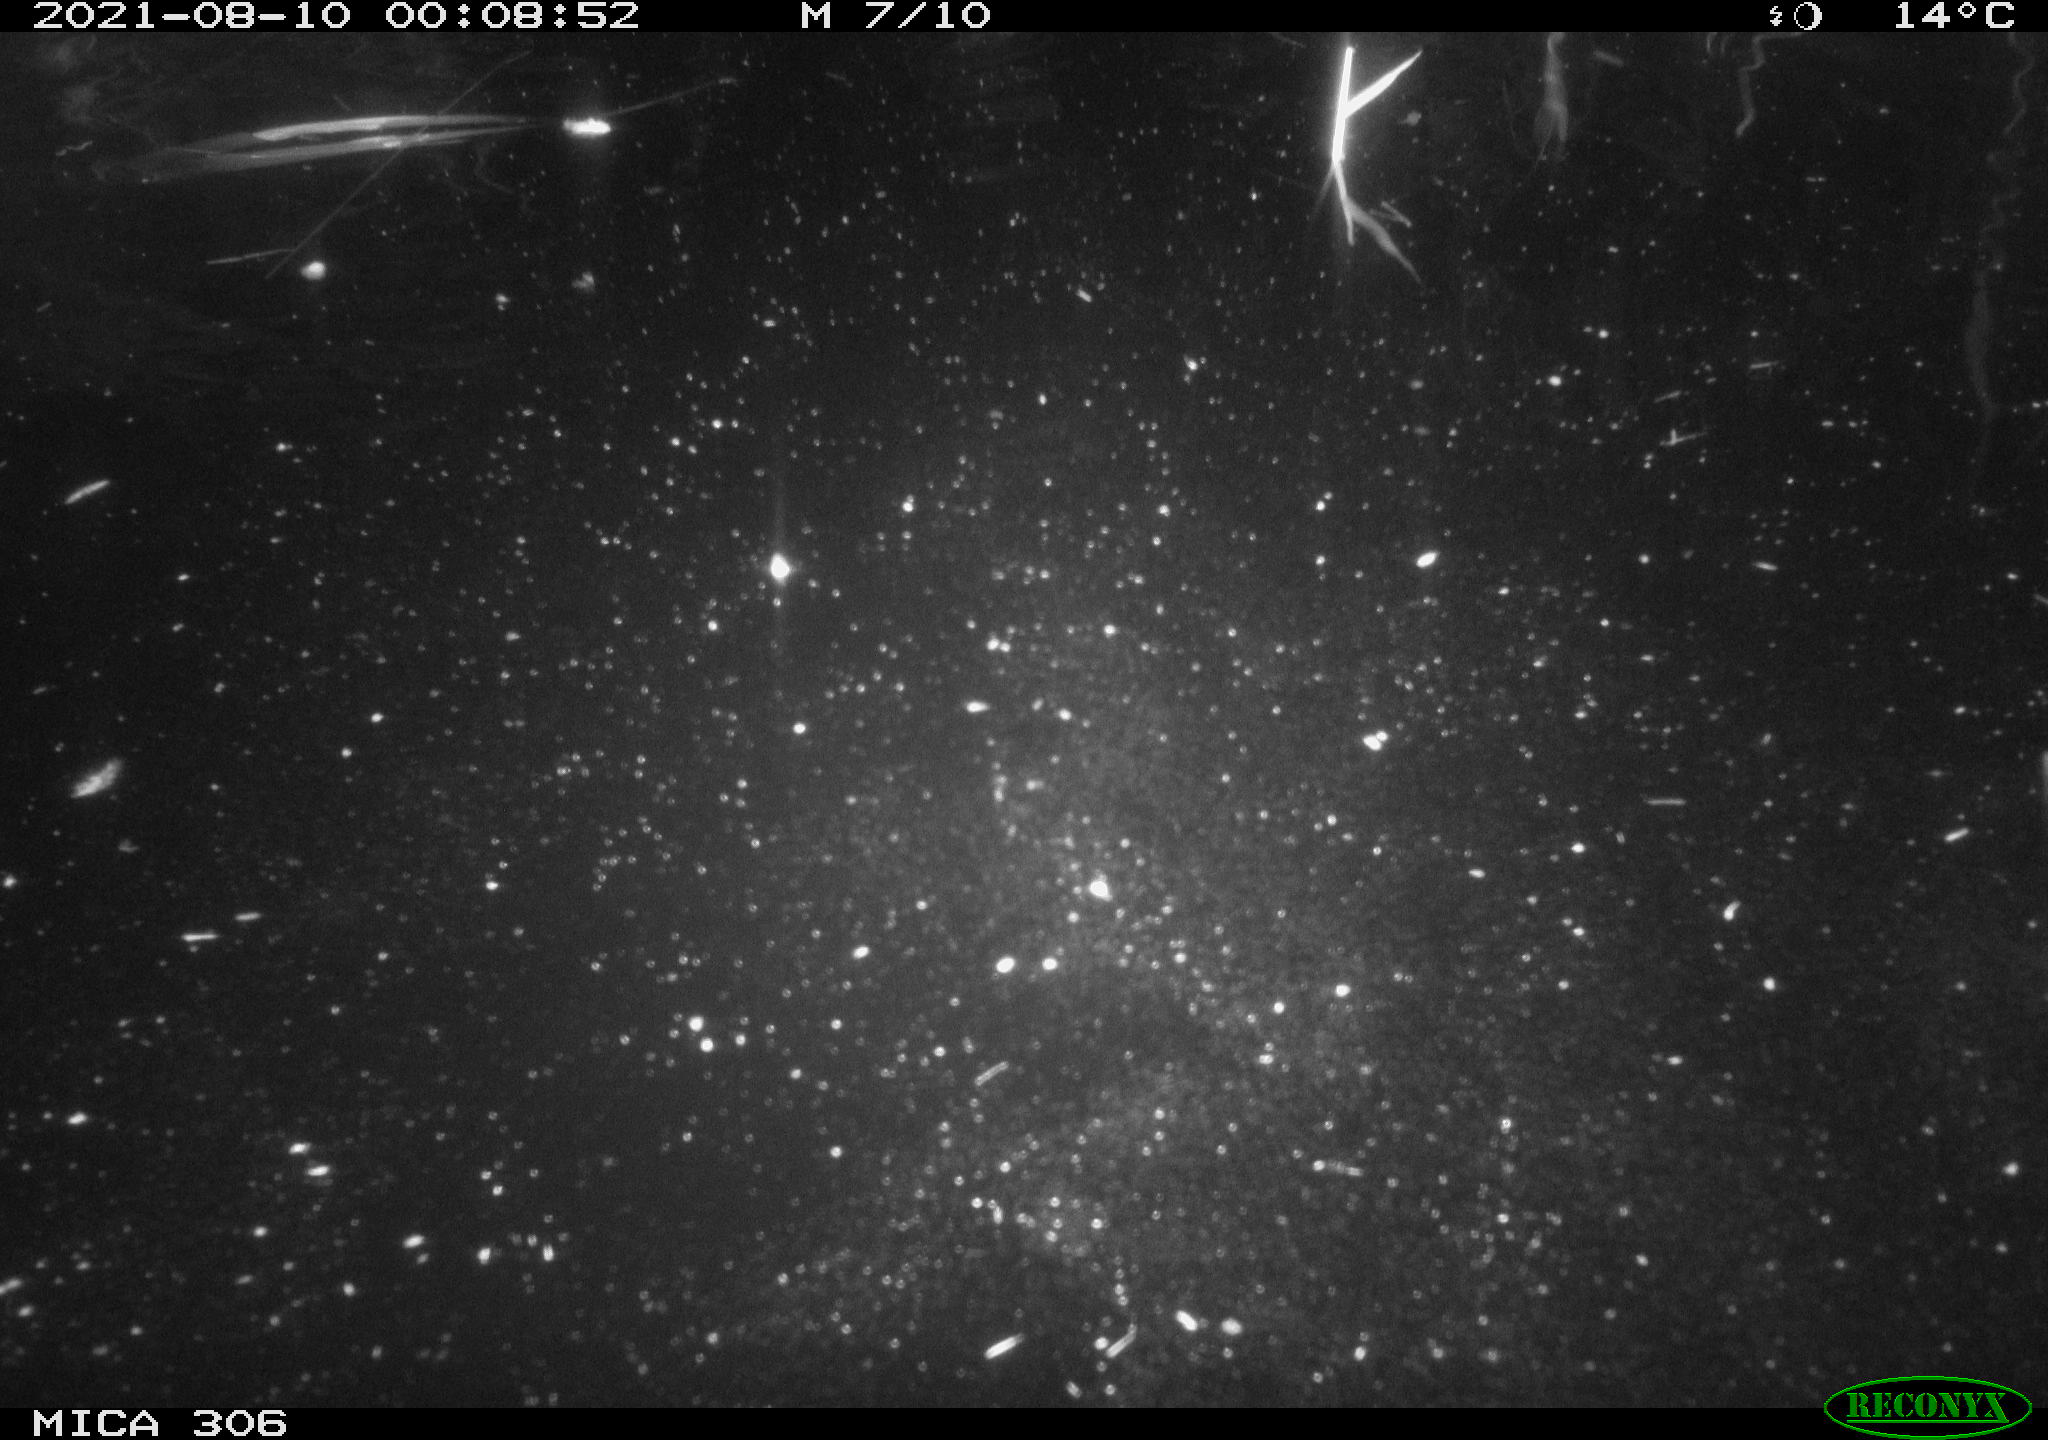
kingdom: Animalia
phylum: Chordata
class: Mammalia
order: Rodentia
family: Cricetidae
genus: Ondatra
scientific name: Ondatra zibethicus
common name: Muskrat
